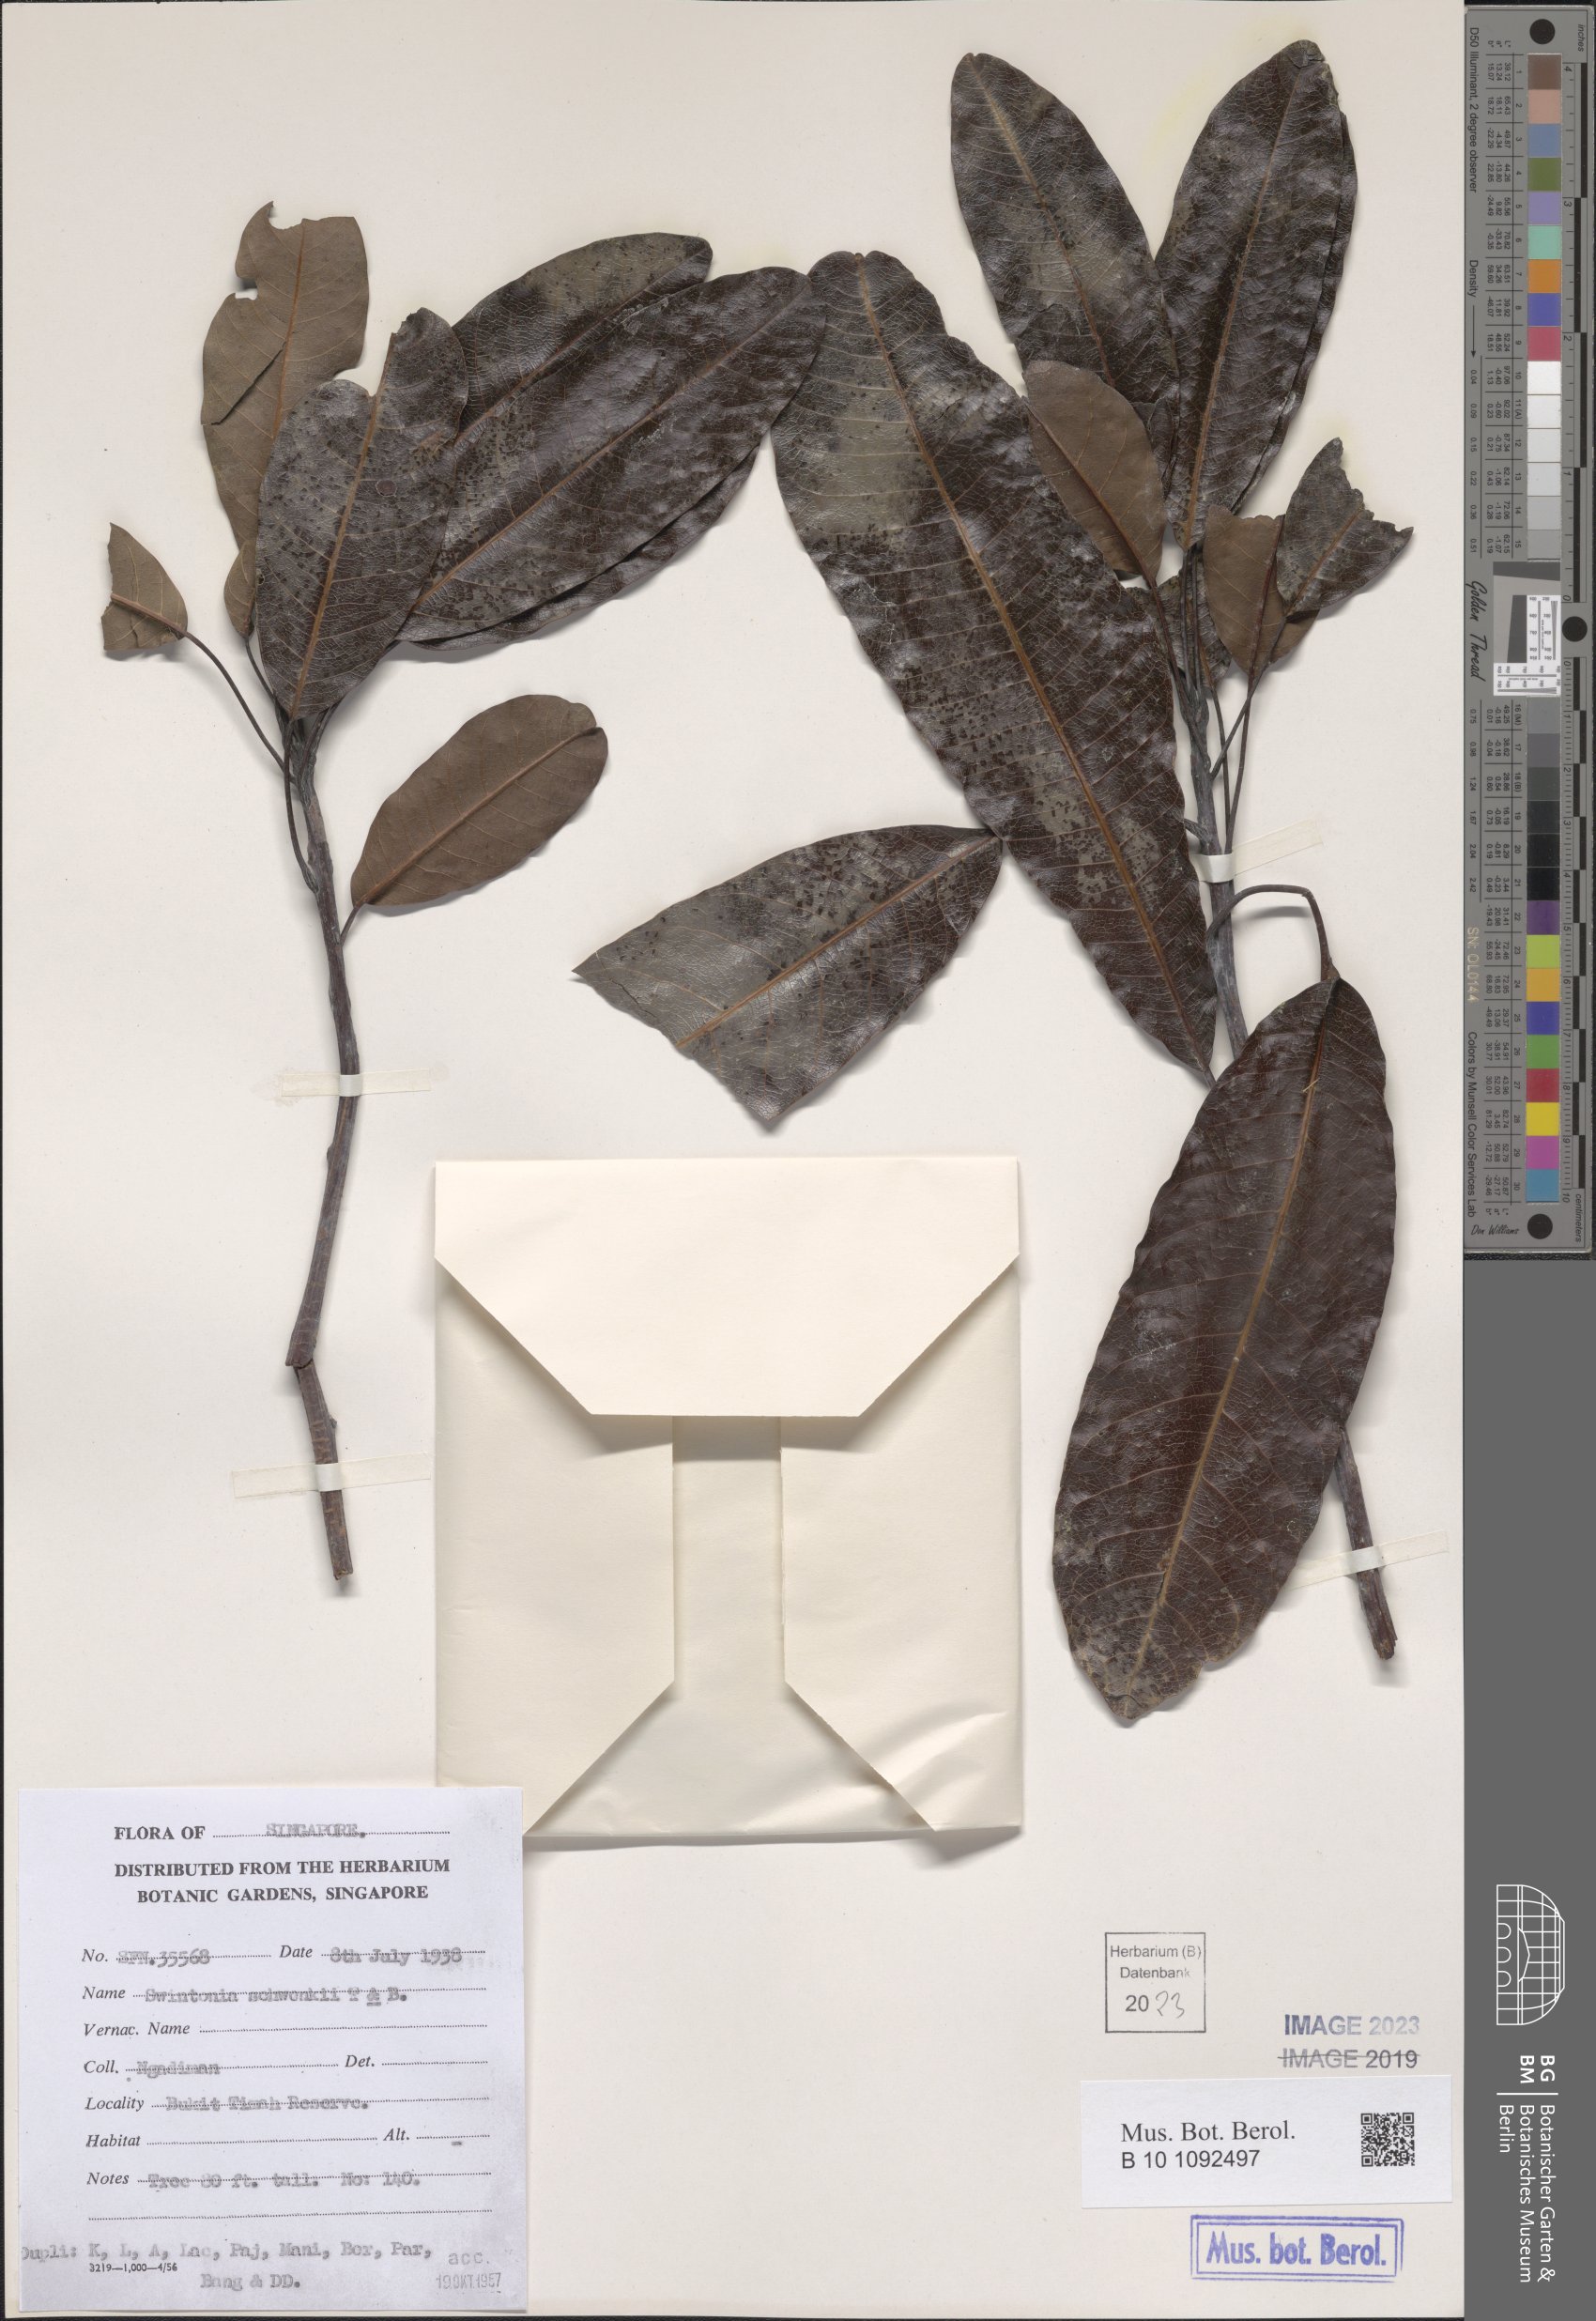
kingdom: Plantae
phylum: Tracheophyta
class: Magnoliopsida
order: Sapindales
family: Anacardiaceae
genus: Swintonia
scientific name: Swintonia schwenkii
